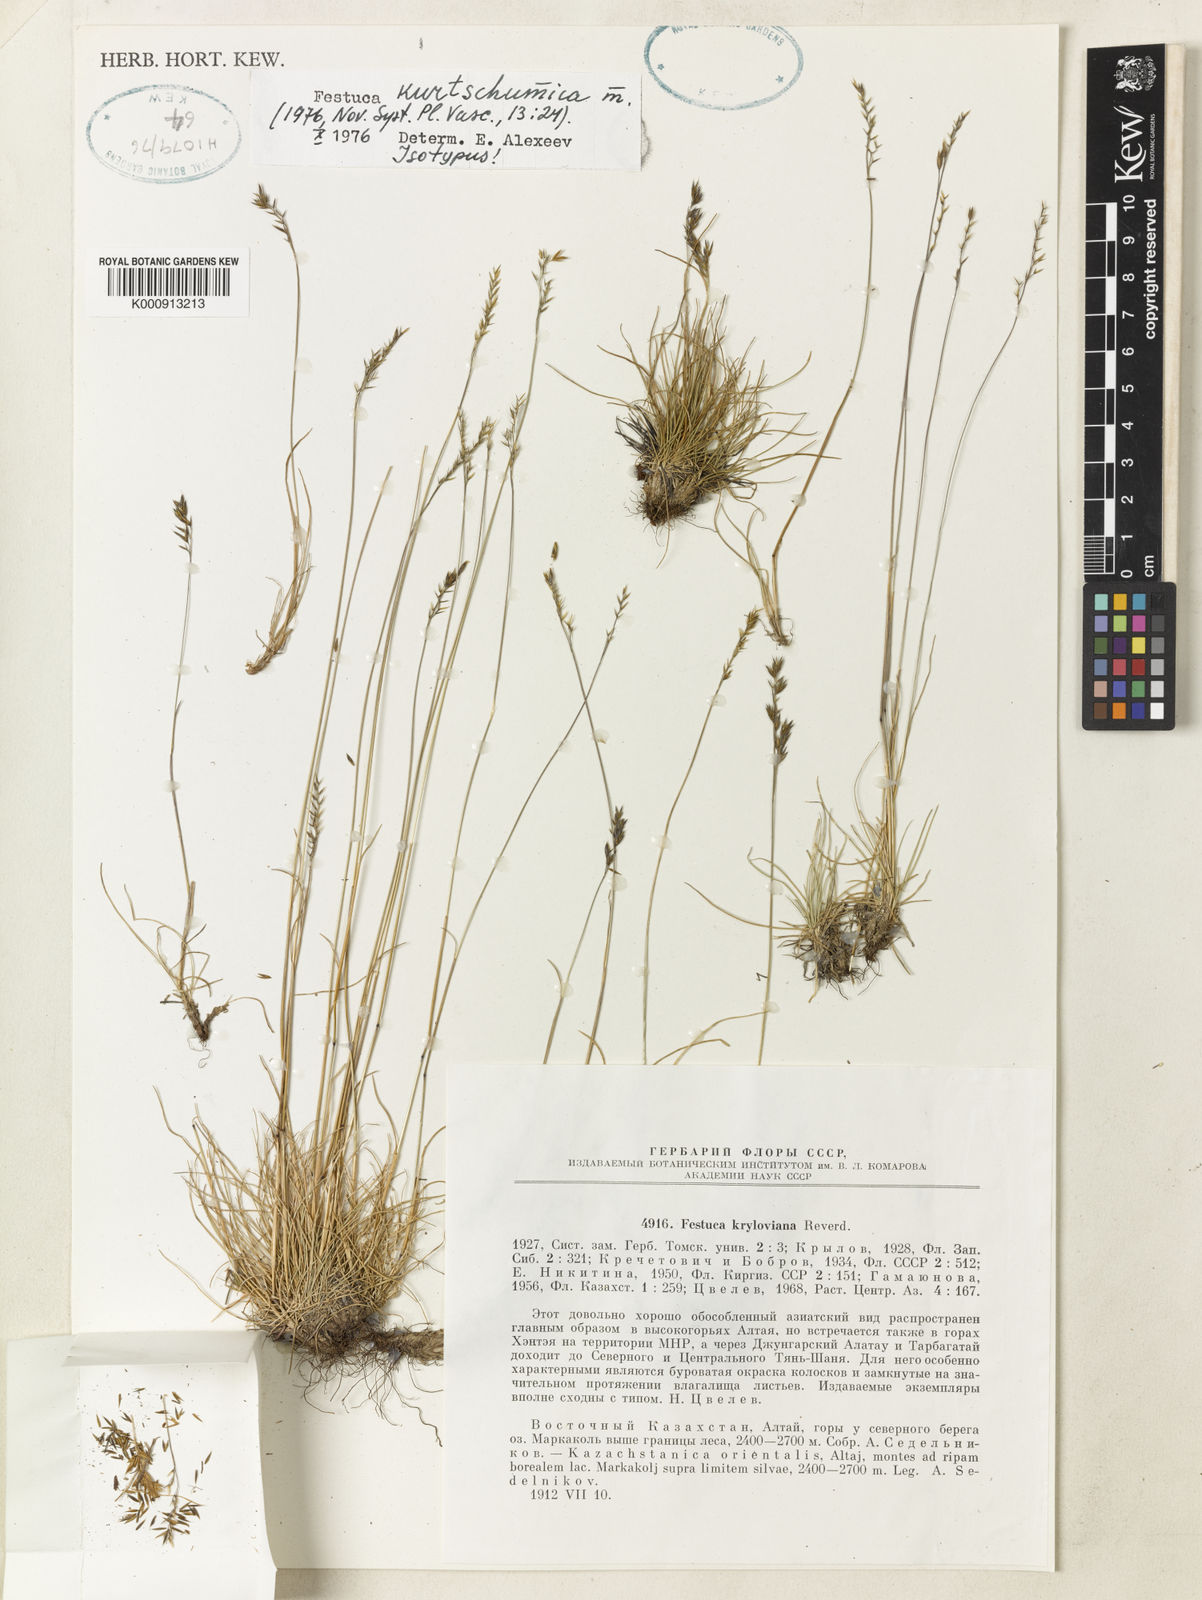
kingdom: Plantae
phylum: Tracheophyta
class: Liliopsida
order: Poales
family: Poaceae
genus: Festuca
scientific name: Festuca kurtschumica
